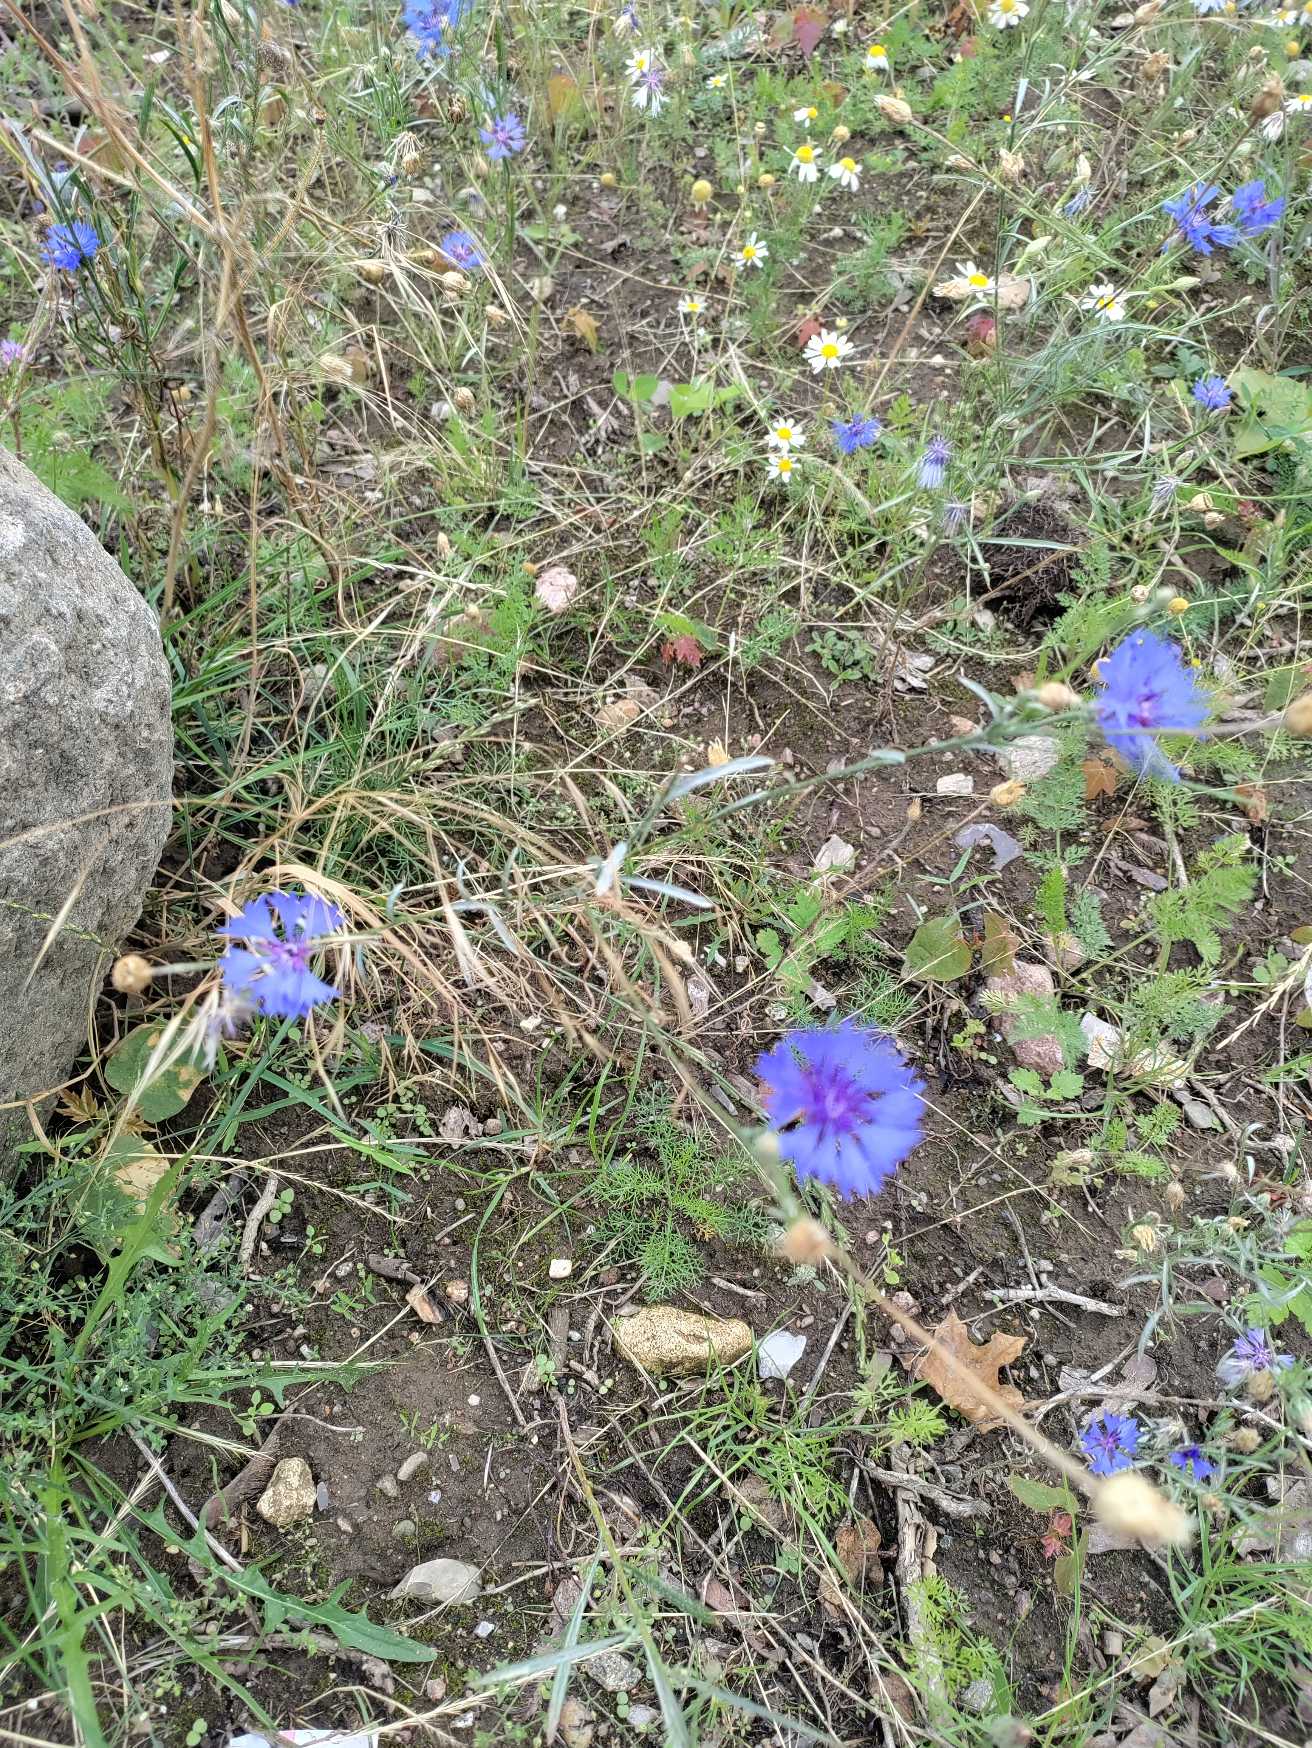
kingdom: Plantae
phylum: Tracheophyta
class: Magnoliopsida
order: Asterales
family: Asteraceae
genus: Centaurea
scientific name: Centaurea cyanus
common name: Kornblomst
